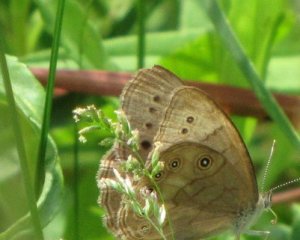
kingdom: Animalia
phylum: Arthropoda
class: Insecta
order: Lepidoptera
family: Nymphalidae
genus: Lethe
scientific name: Lethe eurydice
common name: Eyed Brown
